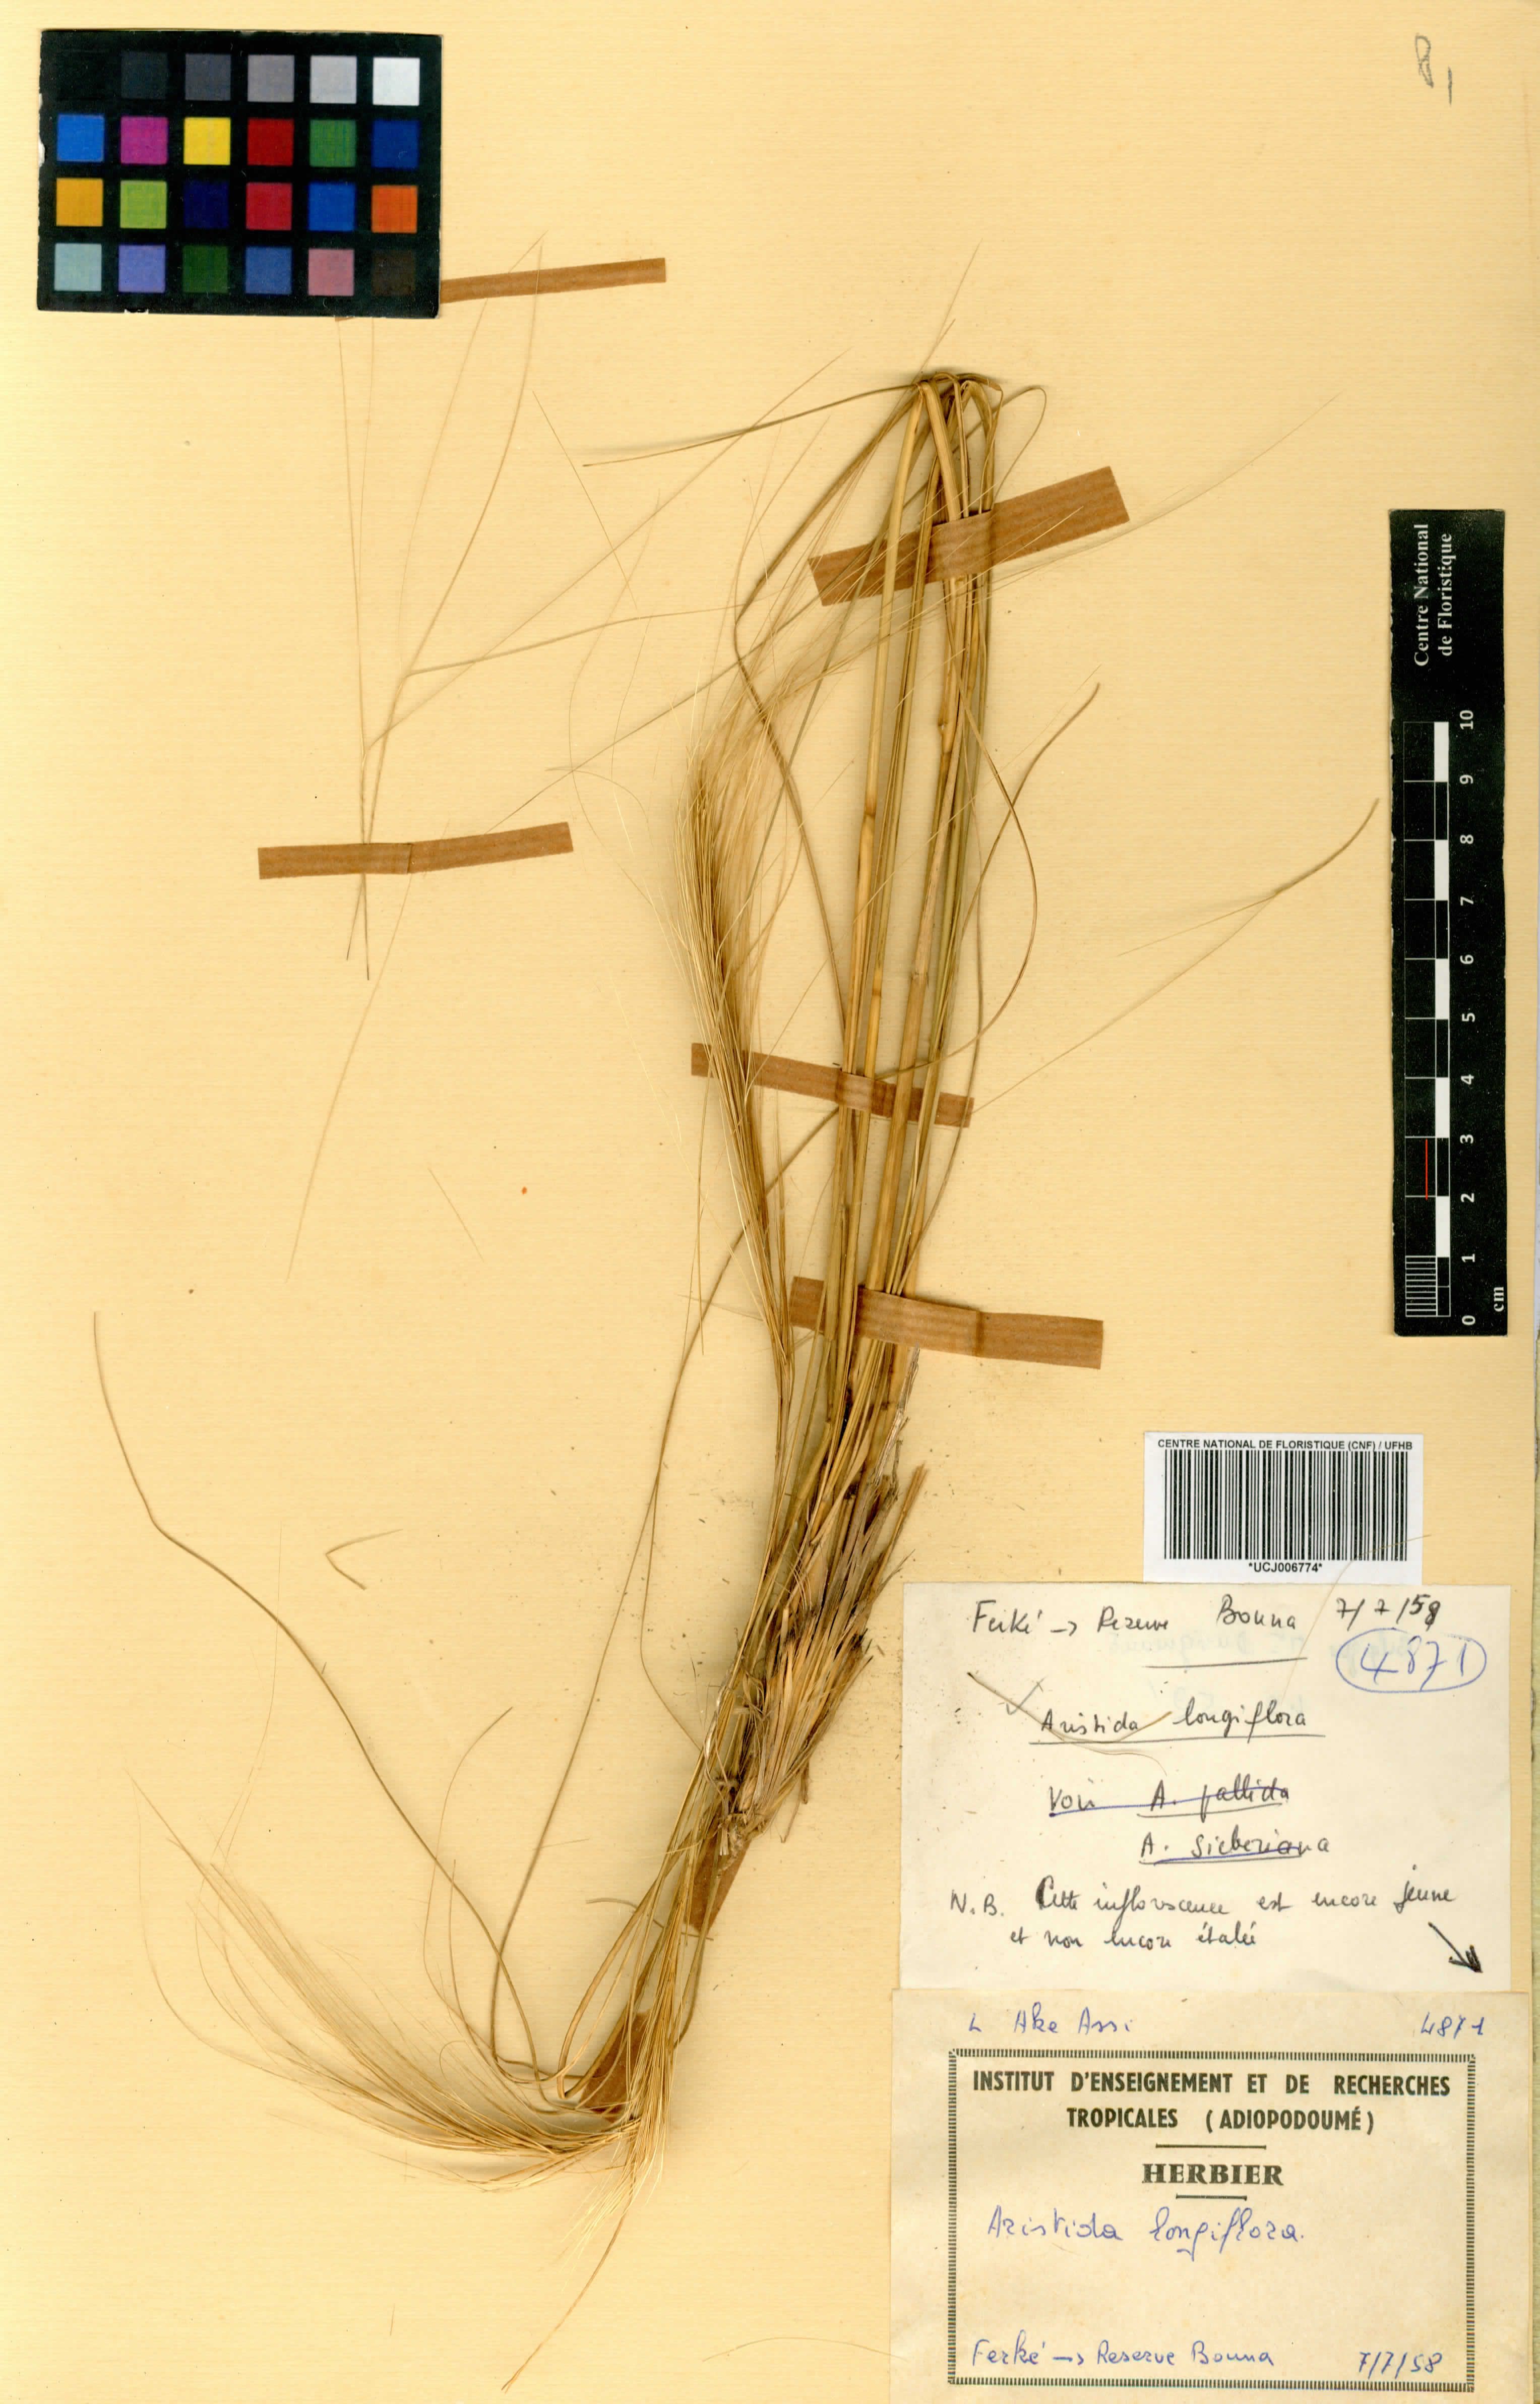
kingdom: Plantae
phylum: Tracheophyta
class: Liliopsida
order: Poales
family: Poaceae
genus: Aristida
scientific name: Aristida sieberiana
